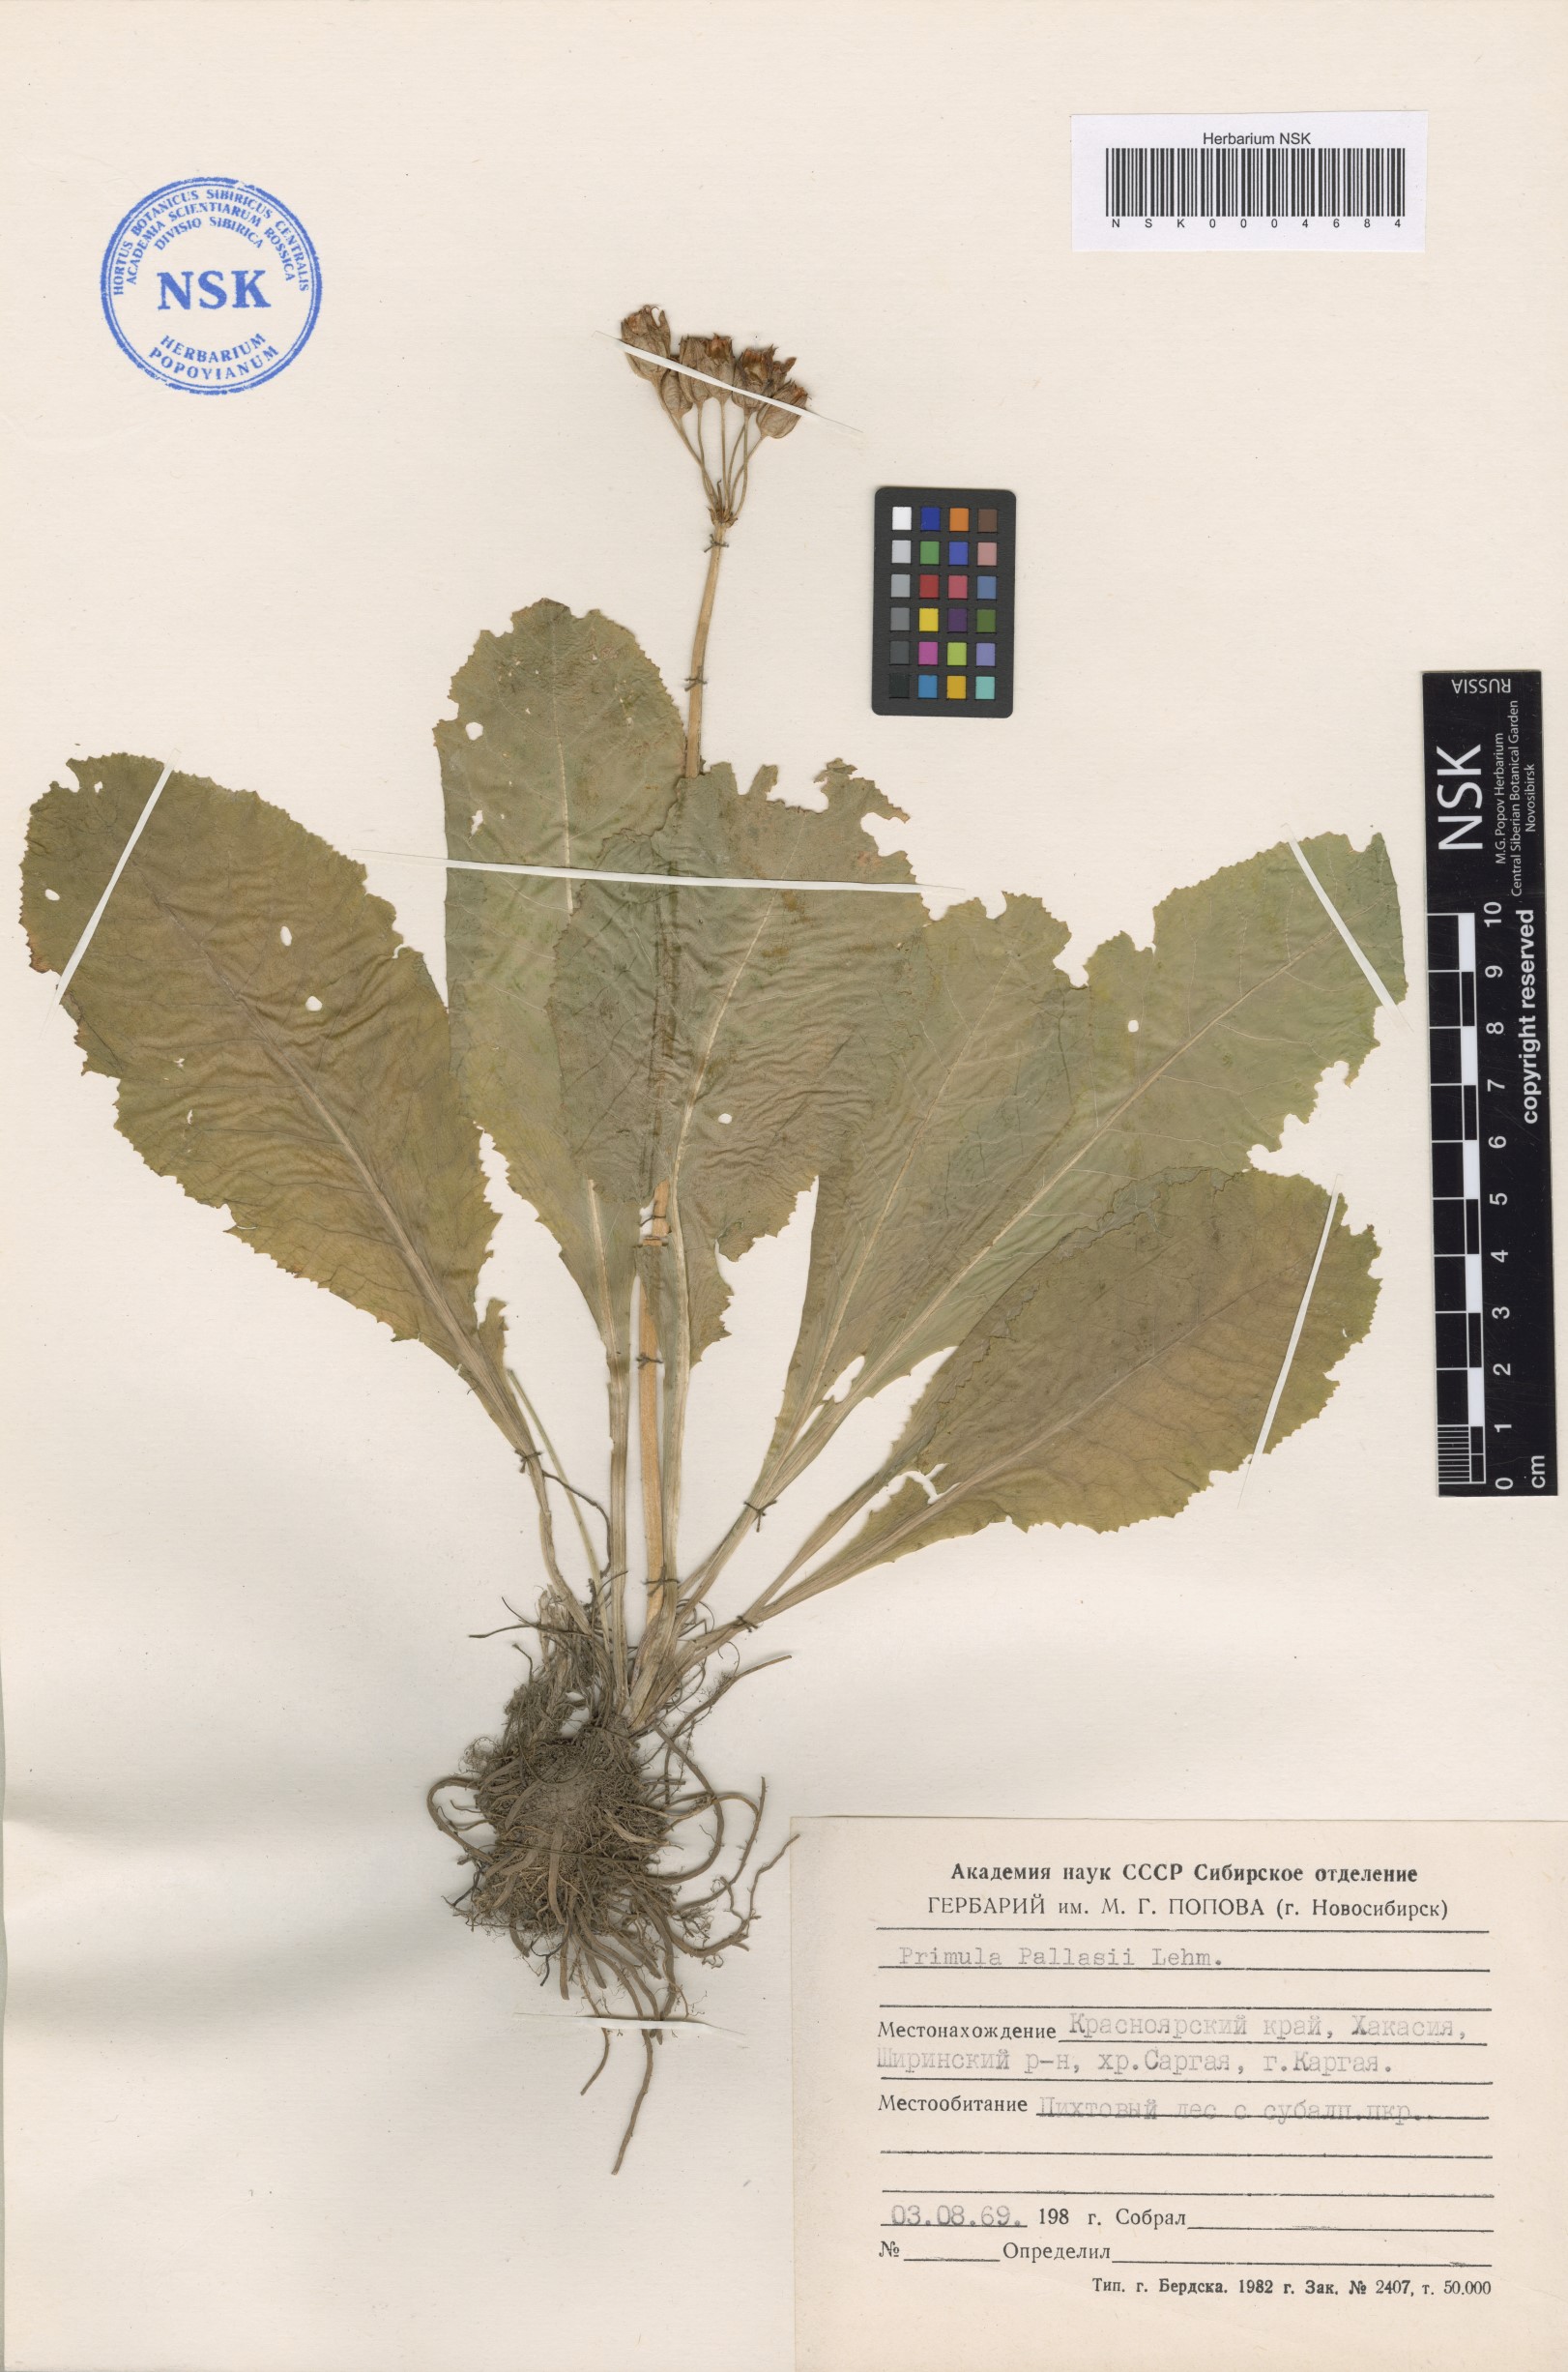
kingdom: Plantae
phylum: Tracheophyta
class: Magnoliopsida
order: Ericales
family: Primulaceae
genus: Primula
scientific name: Primula elatior
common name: Oxlip
